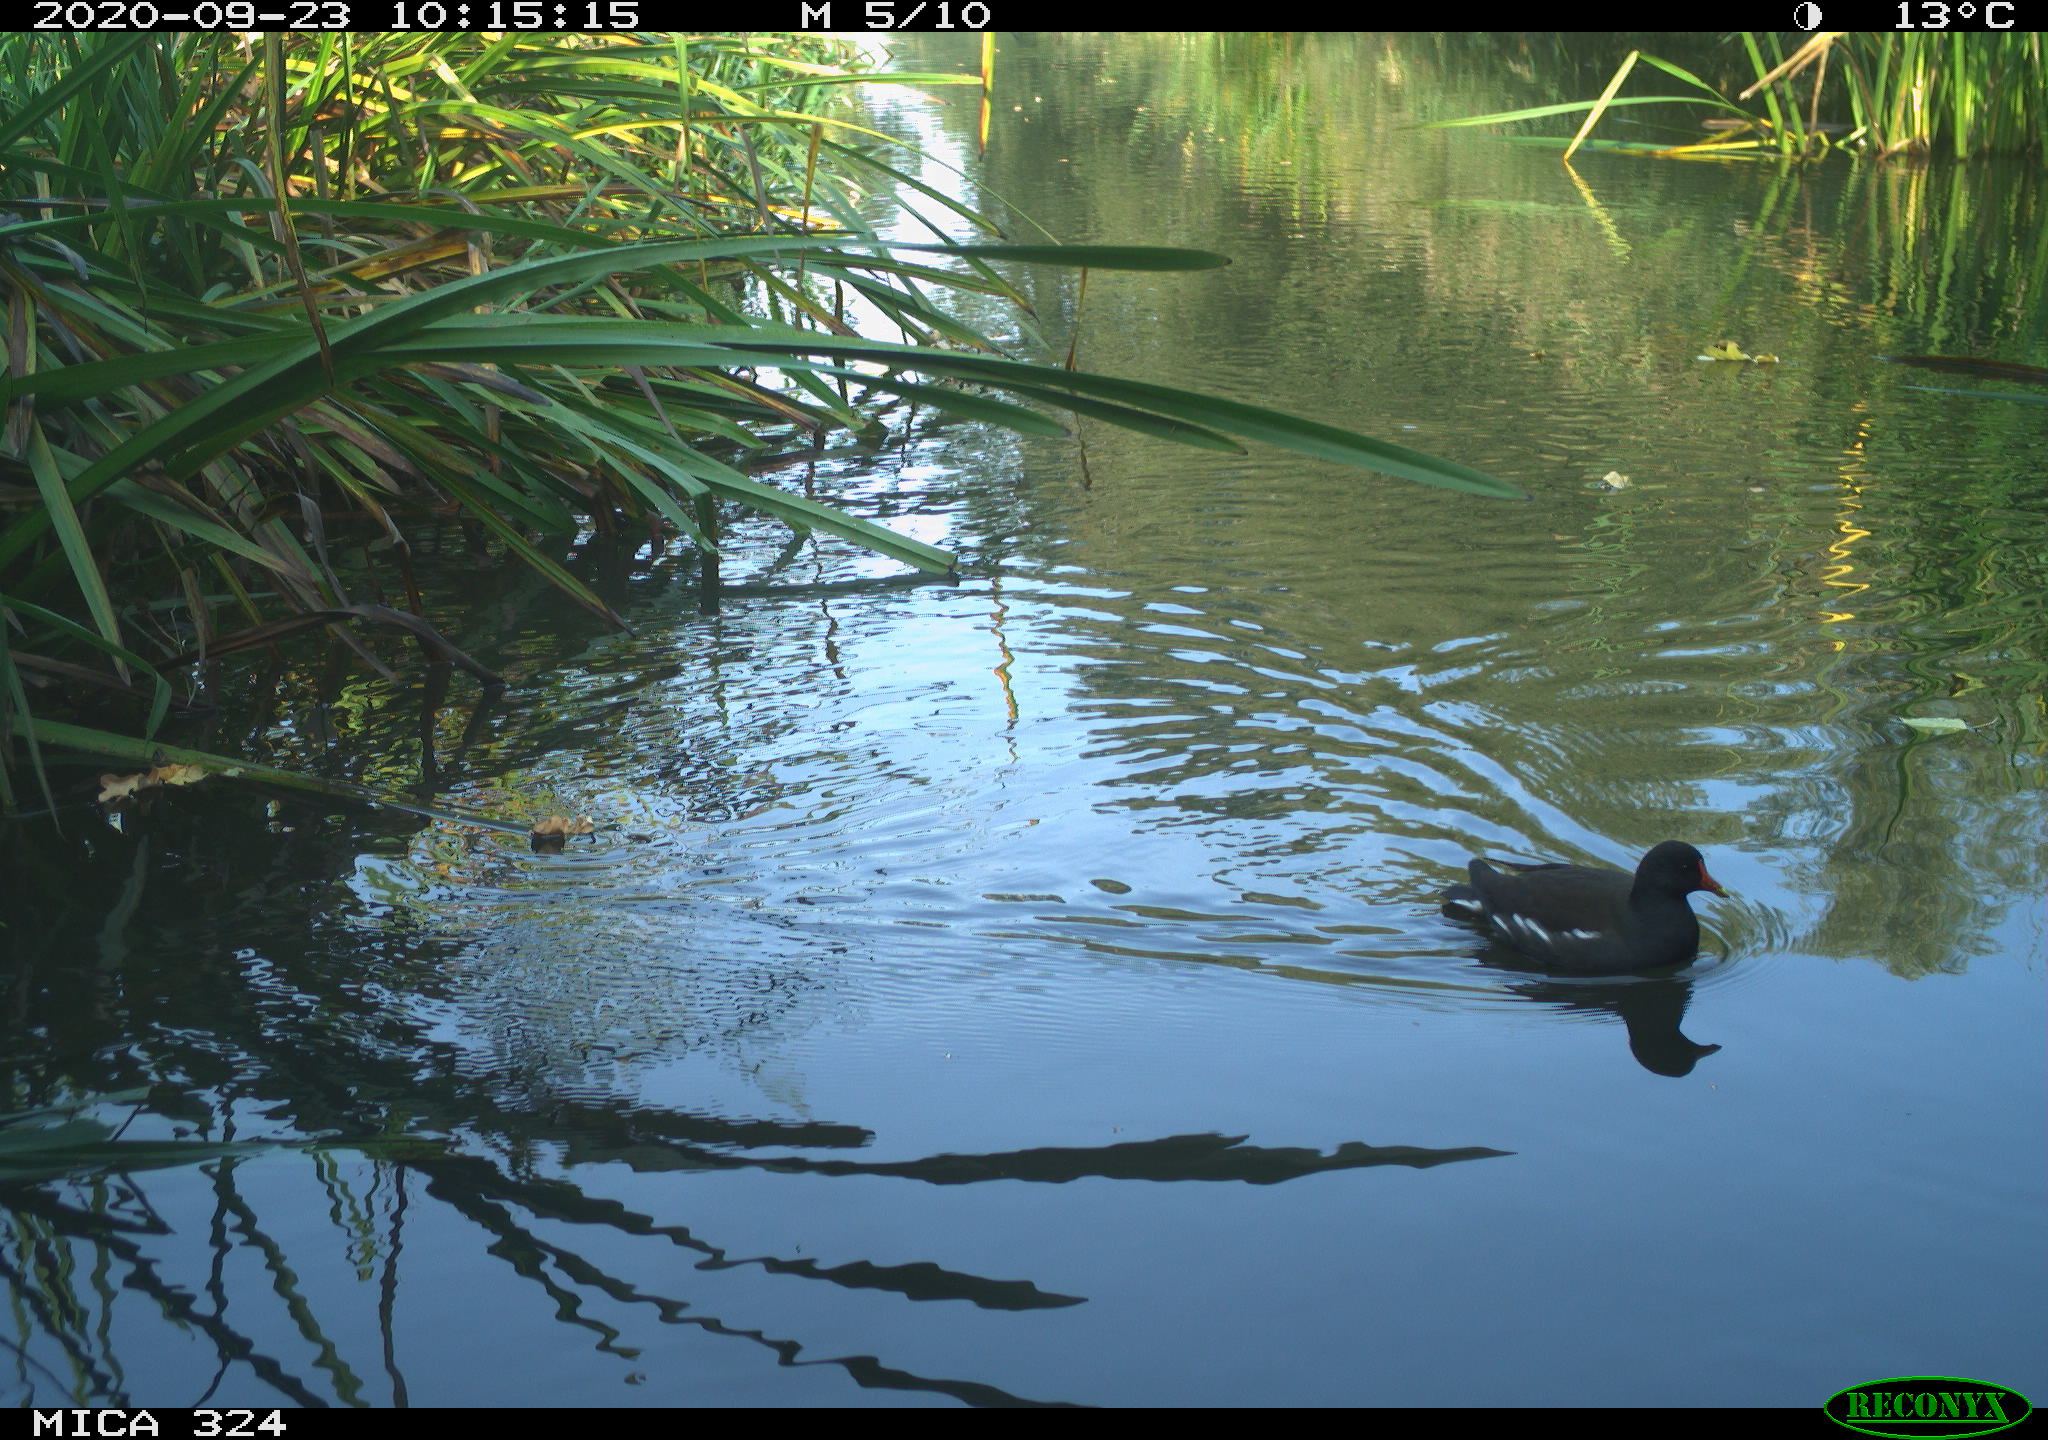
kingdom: Animalia
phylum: Chordata
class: Aves
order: Gruiformes
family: Rallidae
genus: Gallinula
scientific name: Gallinula chloropus
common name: Common moorhen
